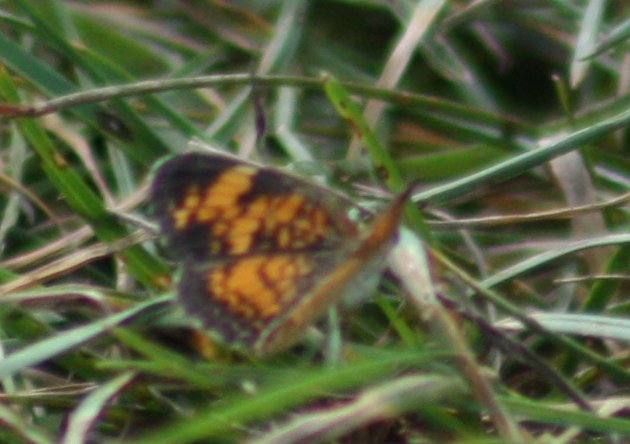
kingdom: Animalia
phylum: Arthropoda
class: Insecta
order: Lepidoptera
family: Nymphalidae
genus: Phyciodes
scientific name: Phyciodes
